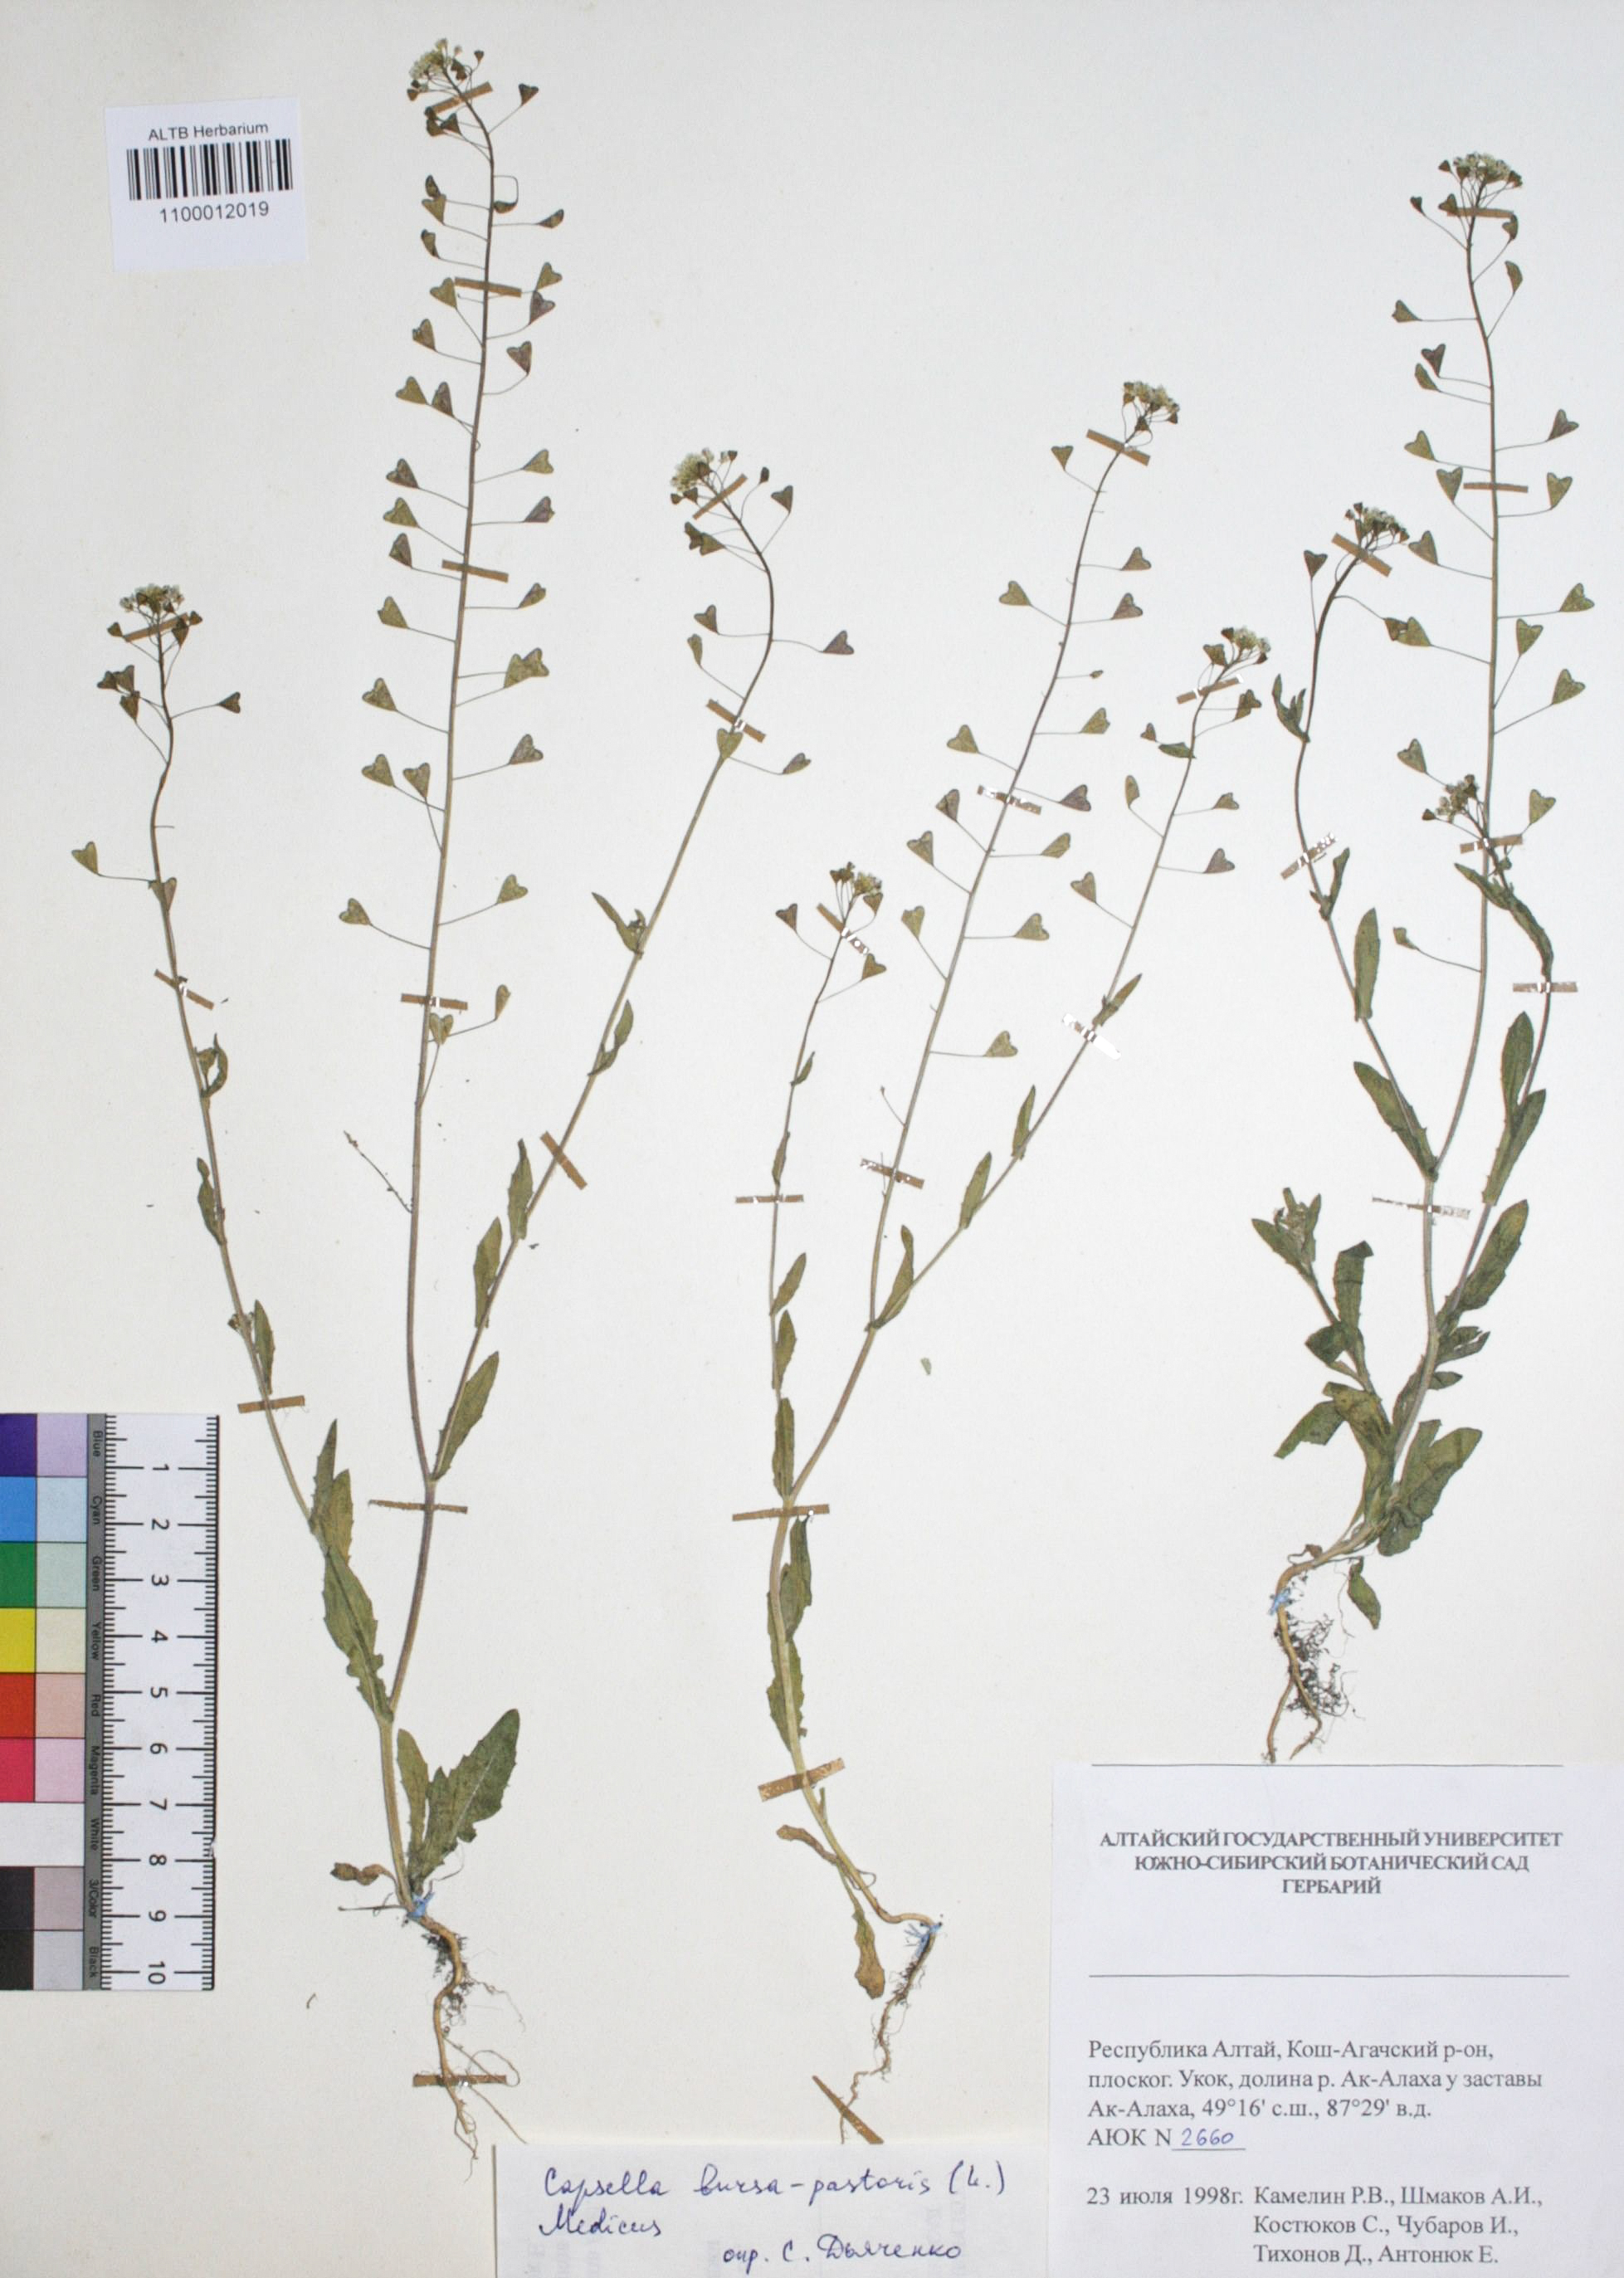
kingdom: Plantae
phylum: Tracheophyta
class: Magnoliopsida
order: Brassicales
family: Brassicaceae
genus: Capsella
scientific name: Capsella bursa-pastoris
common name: Shepherd's purse
